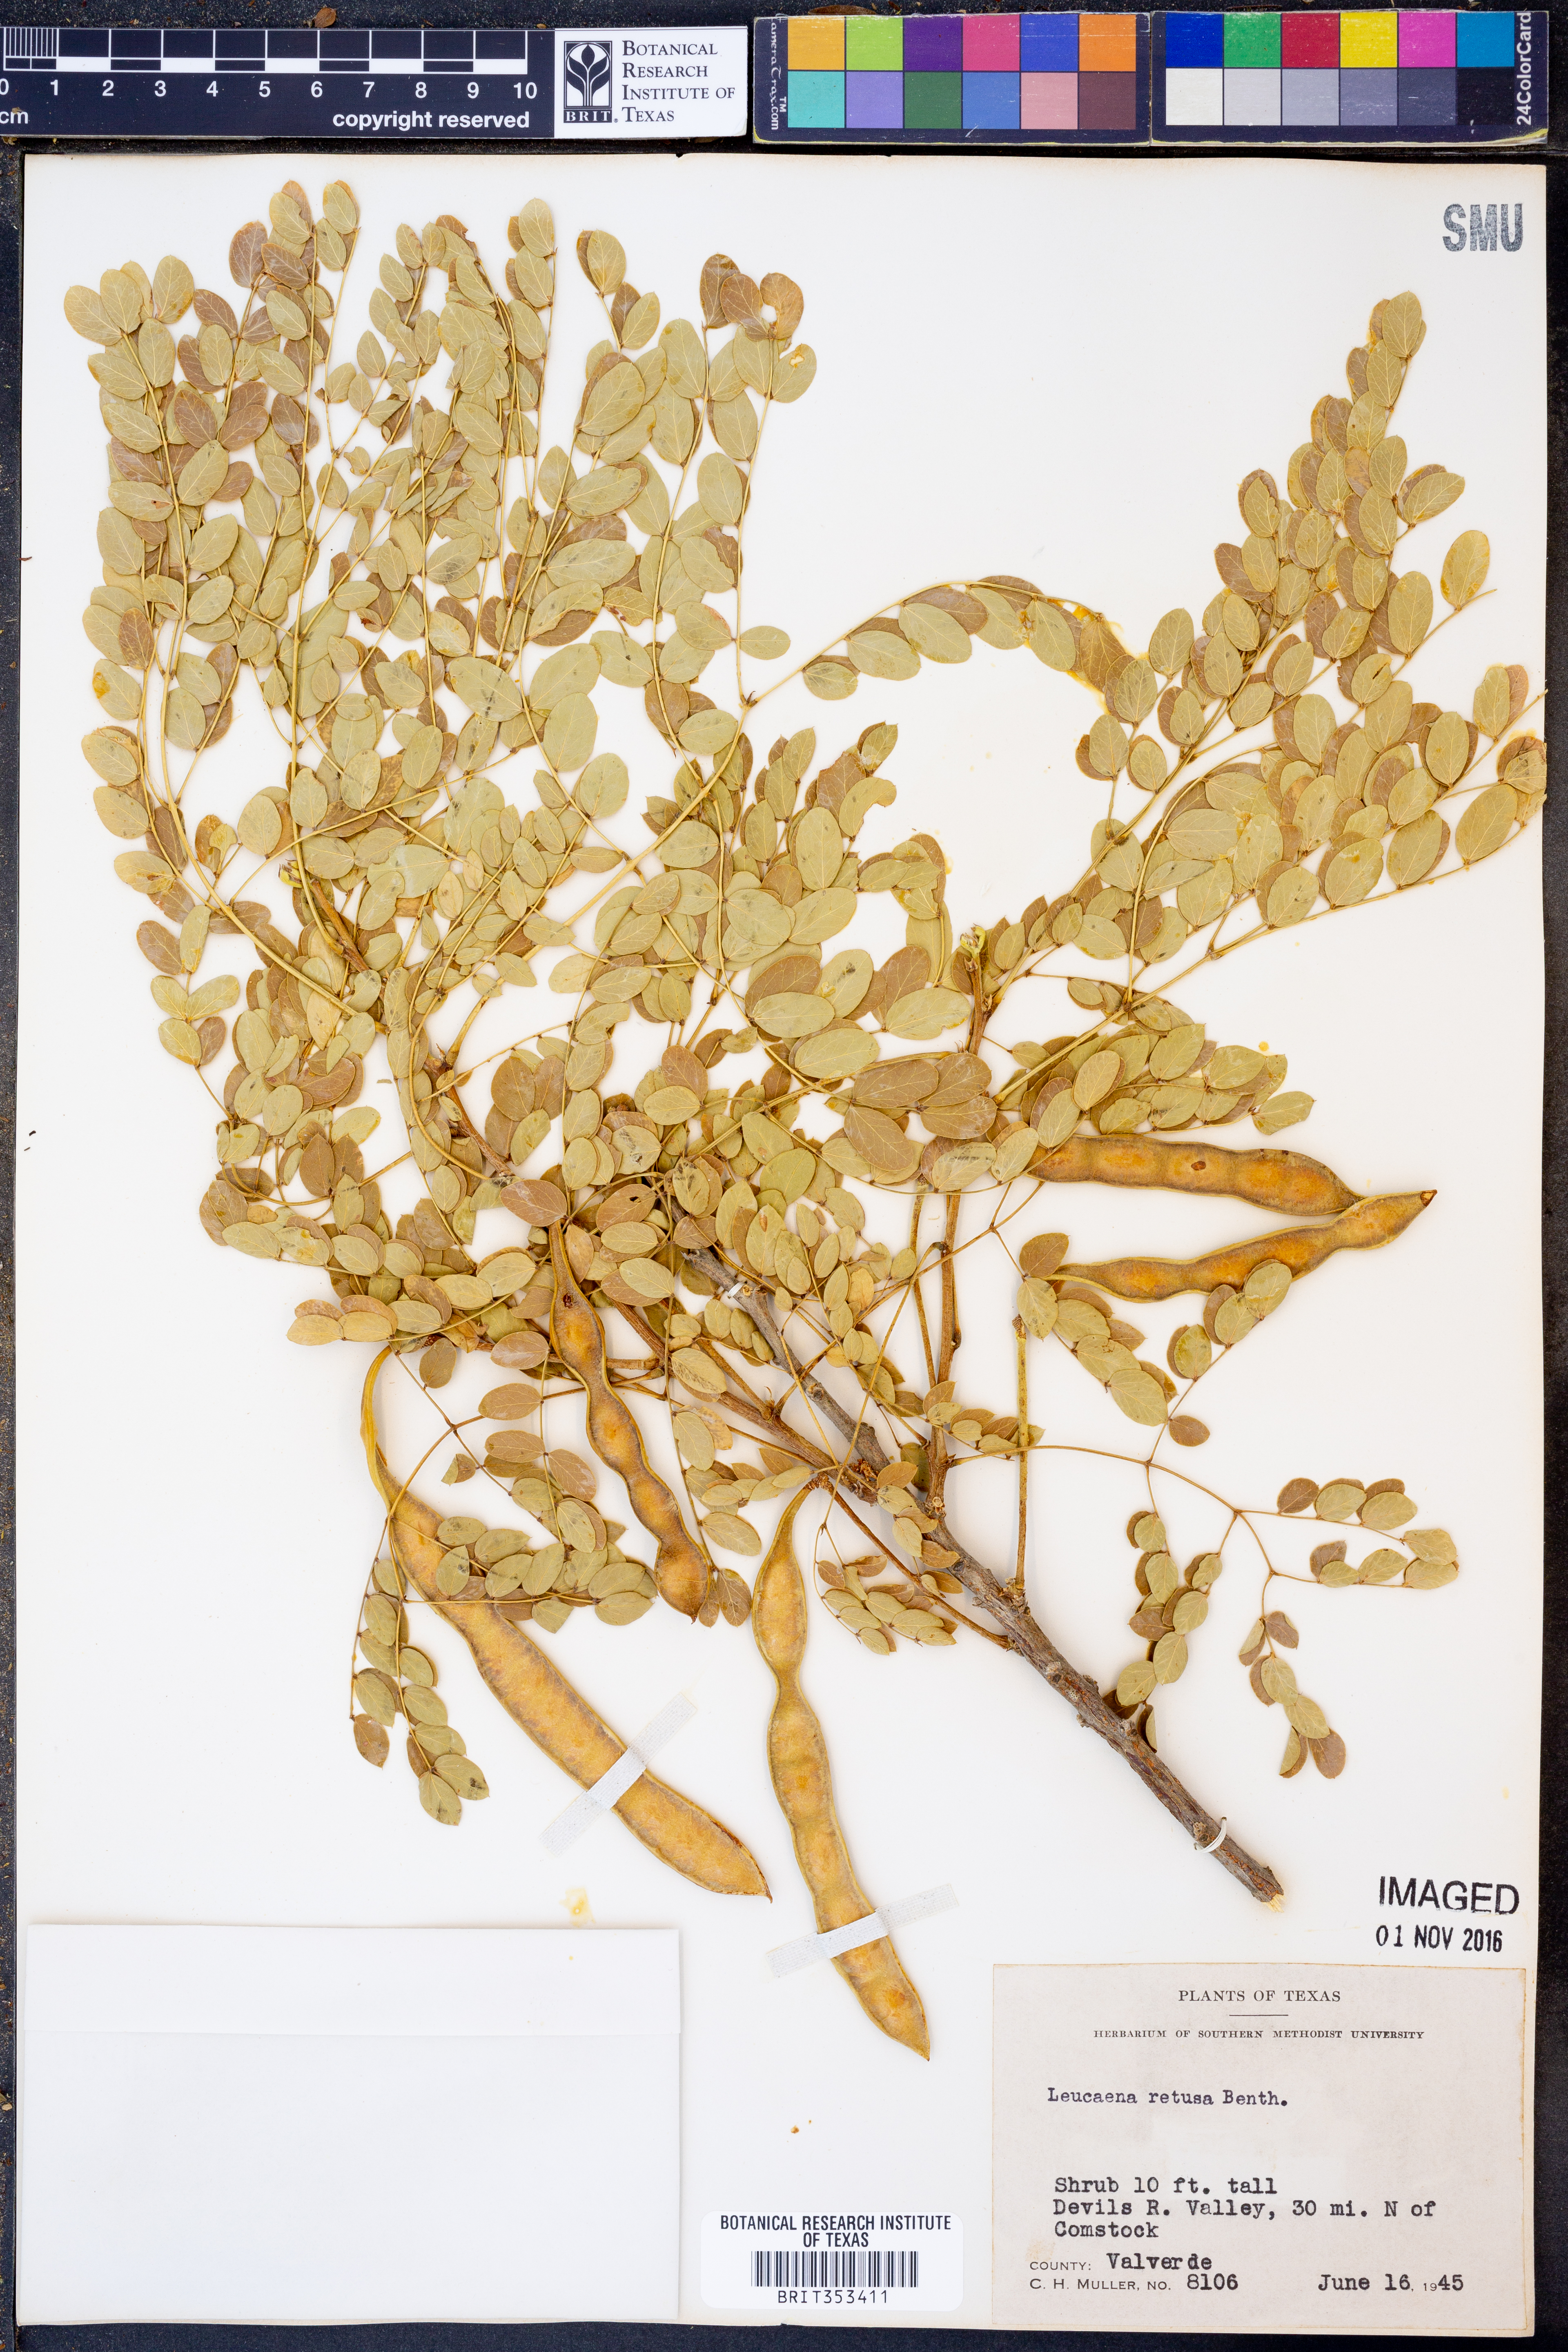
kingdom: Plantae
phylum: Tracheophyta
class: Magnoliopsida
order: Fabales
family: Fabaceae
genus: Leucaena
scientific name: Leucaena retusa
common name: Littleleaf leadtree
